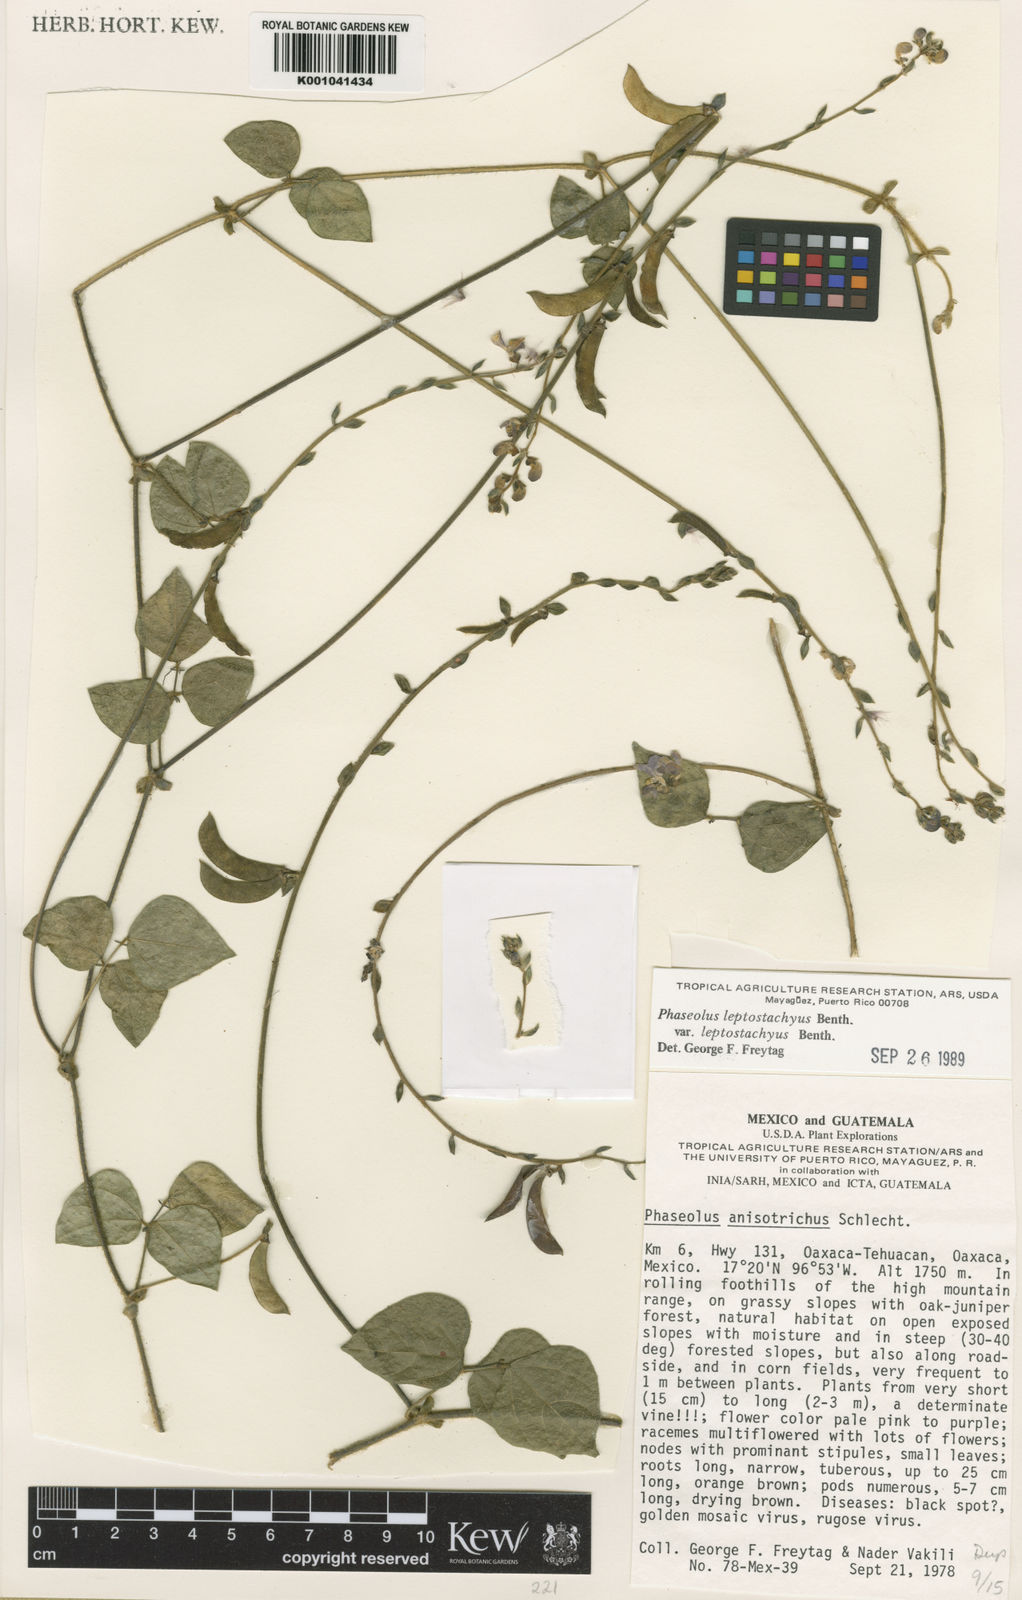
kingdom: Plantae
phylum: Tracheophyta
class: Magnoliopsida
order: Fabales
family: Fabaceae
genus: Phaseolus
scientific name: Phaseolus
